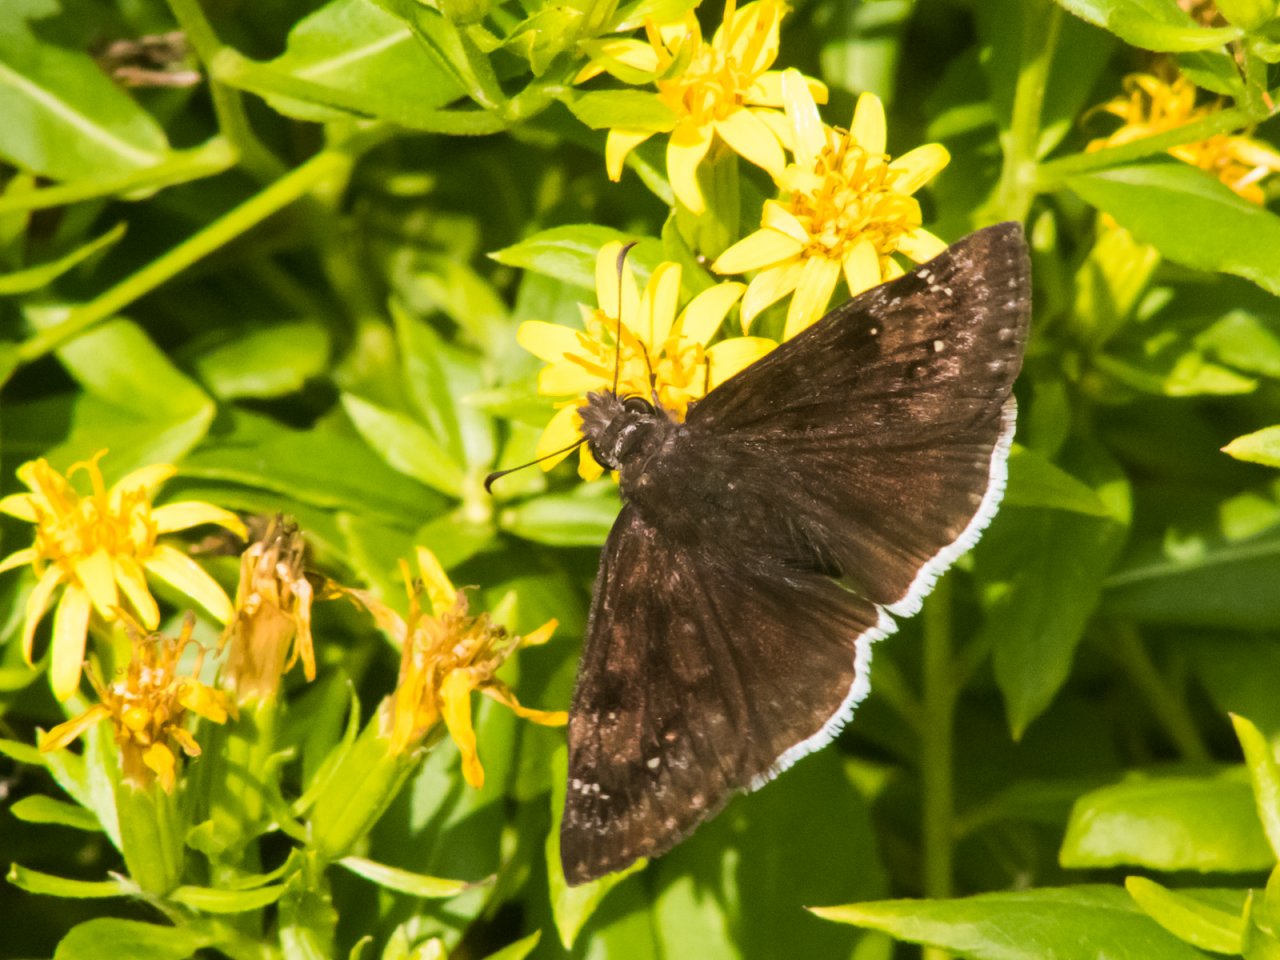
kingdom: Animalia
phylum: Arthropoda
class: Insecta
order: Lepidoptera
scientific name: Lepidoptera
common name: Butterflies
